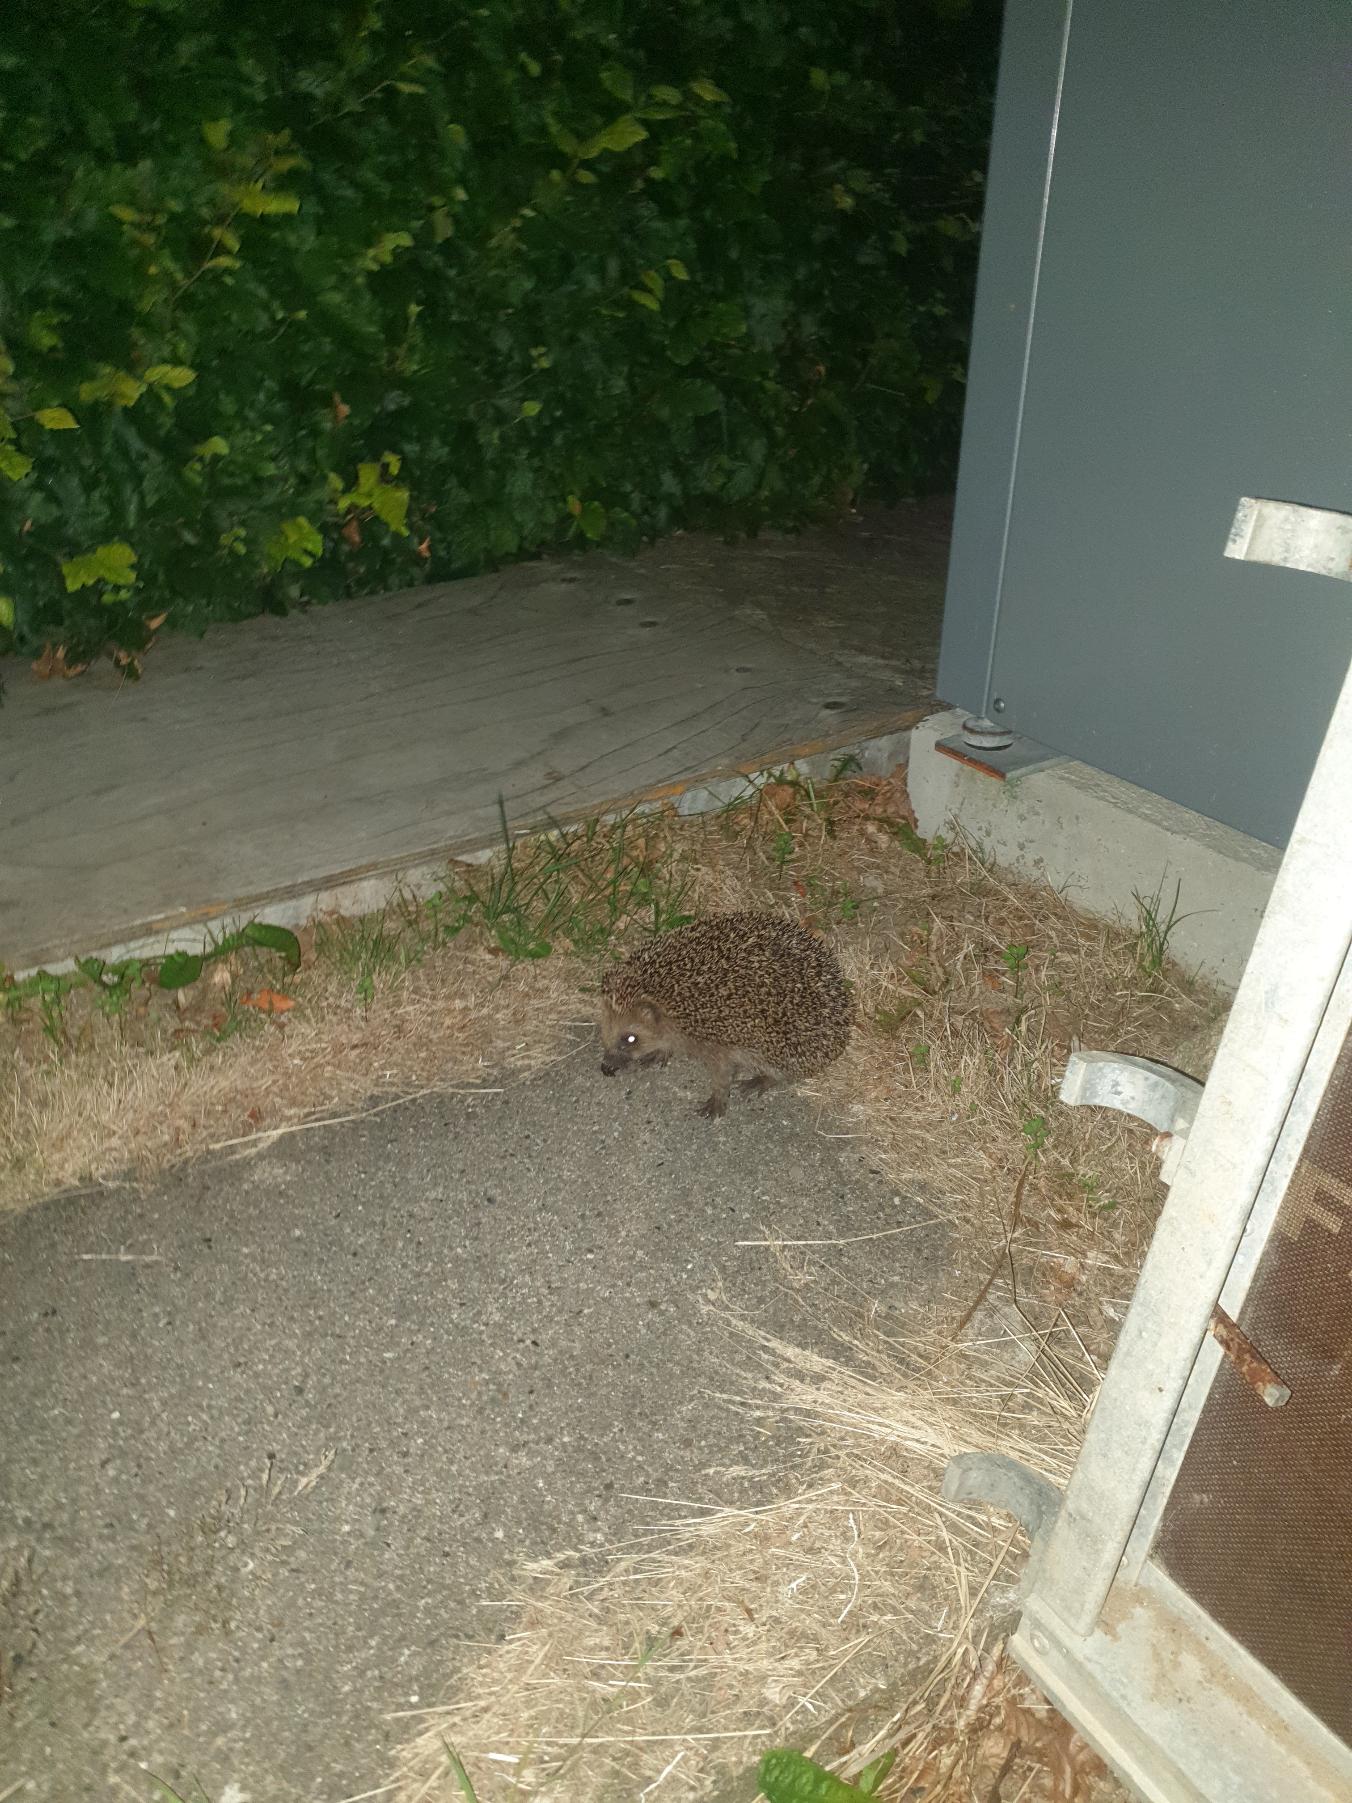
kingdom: Animalia
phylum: Chordata
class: Mammalia
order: Erinaceomorpha
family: Erinaceidae
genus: Erinaceus
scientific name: Erinaceus europaeus
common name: Pindsvin
